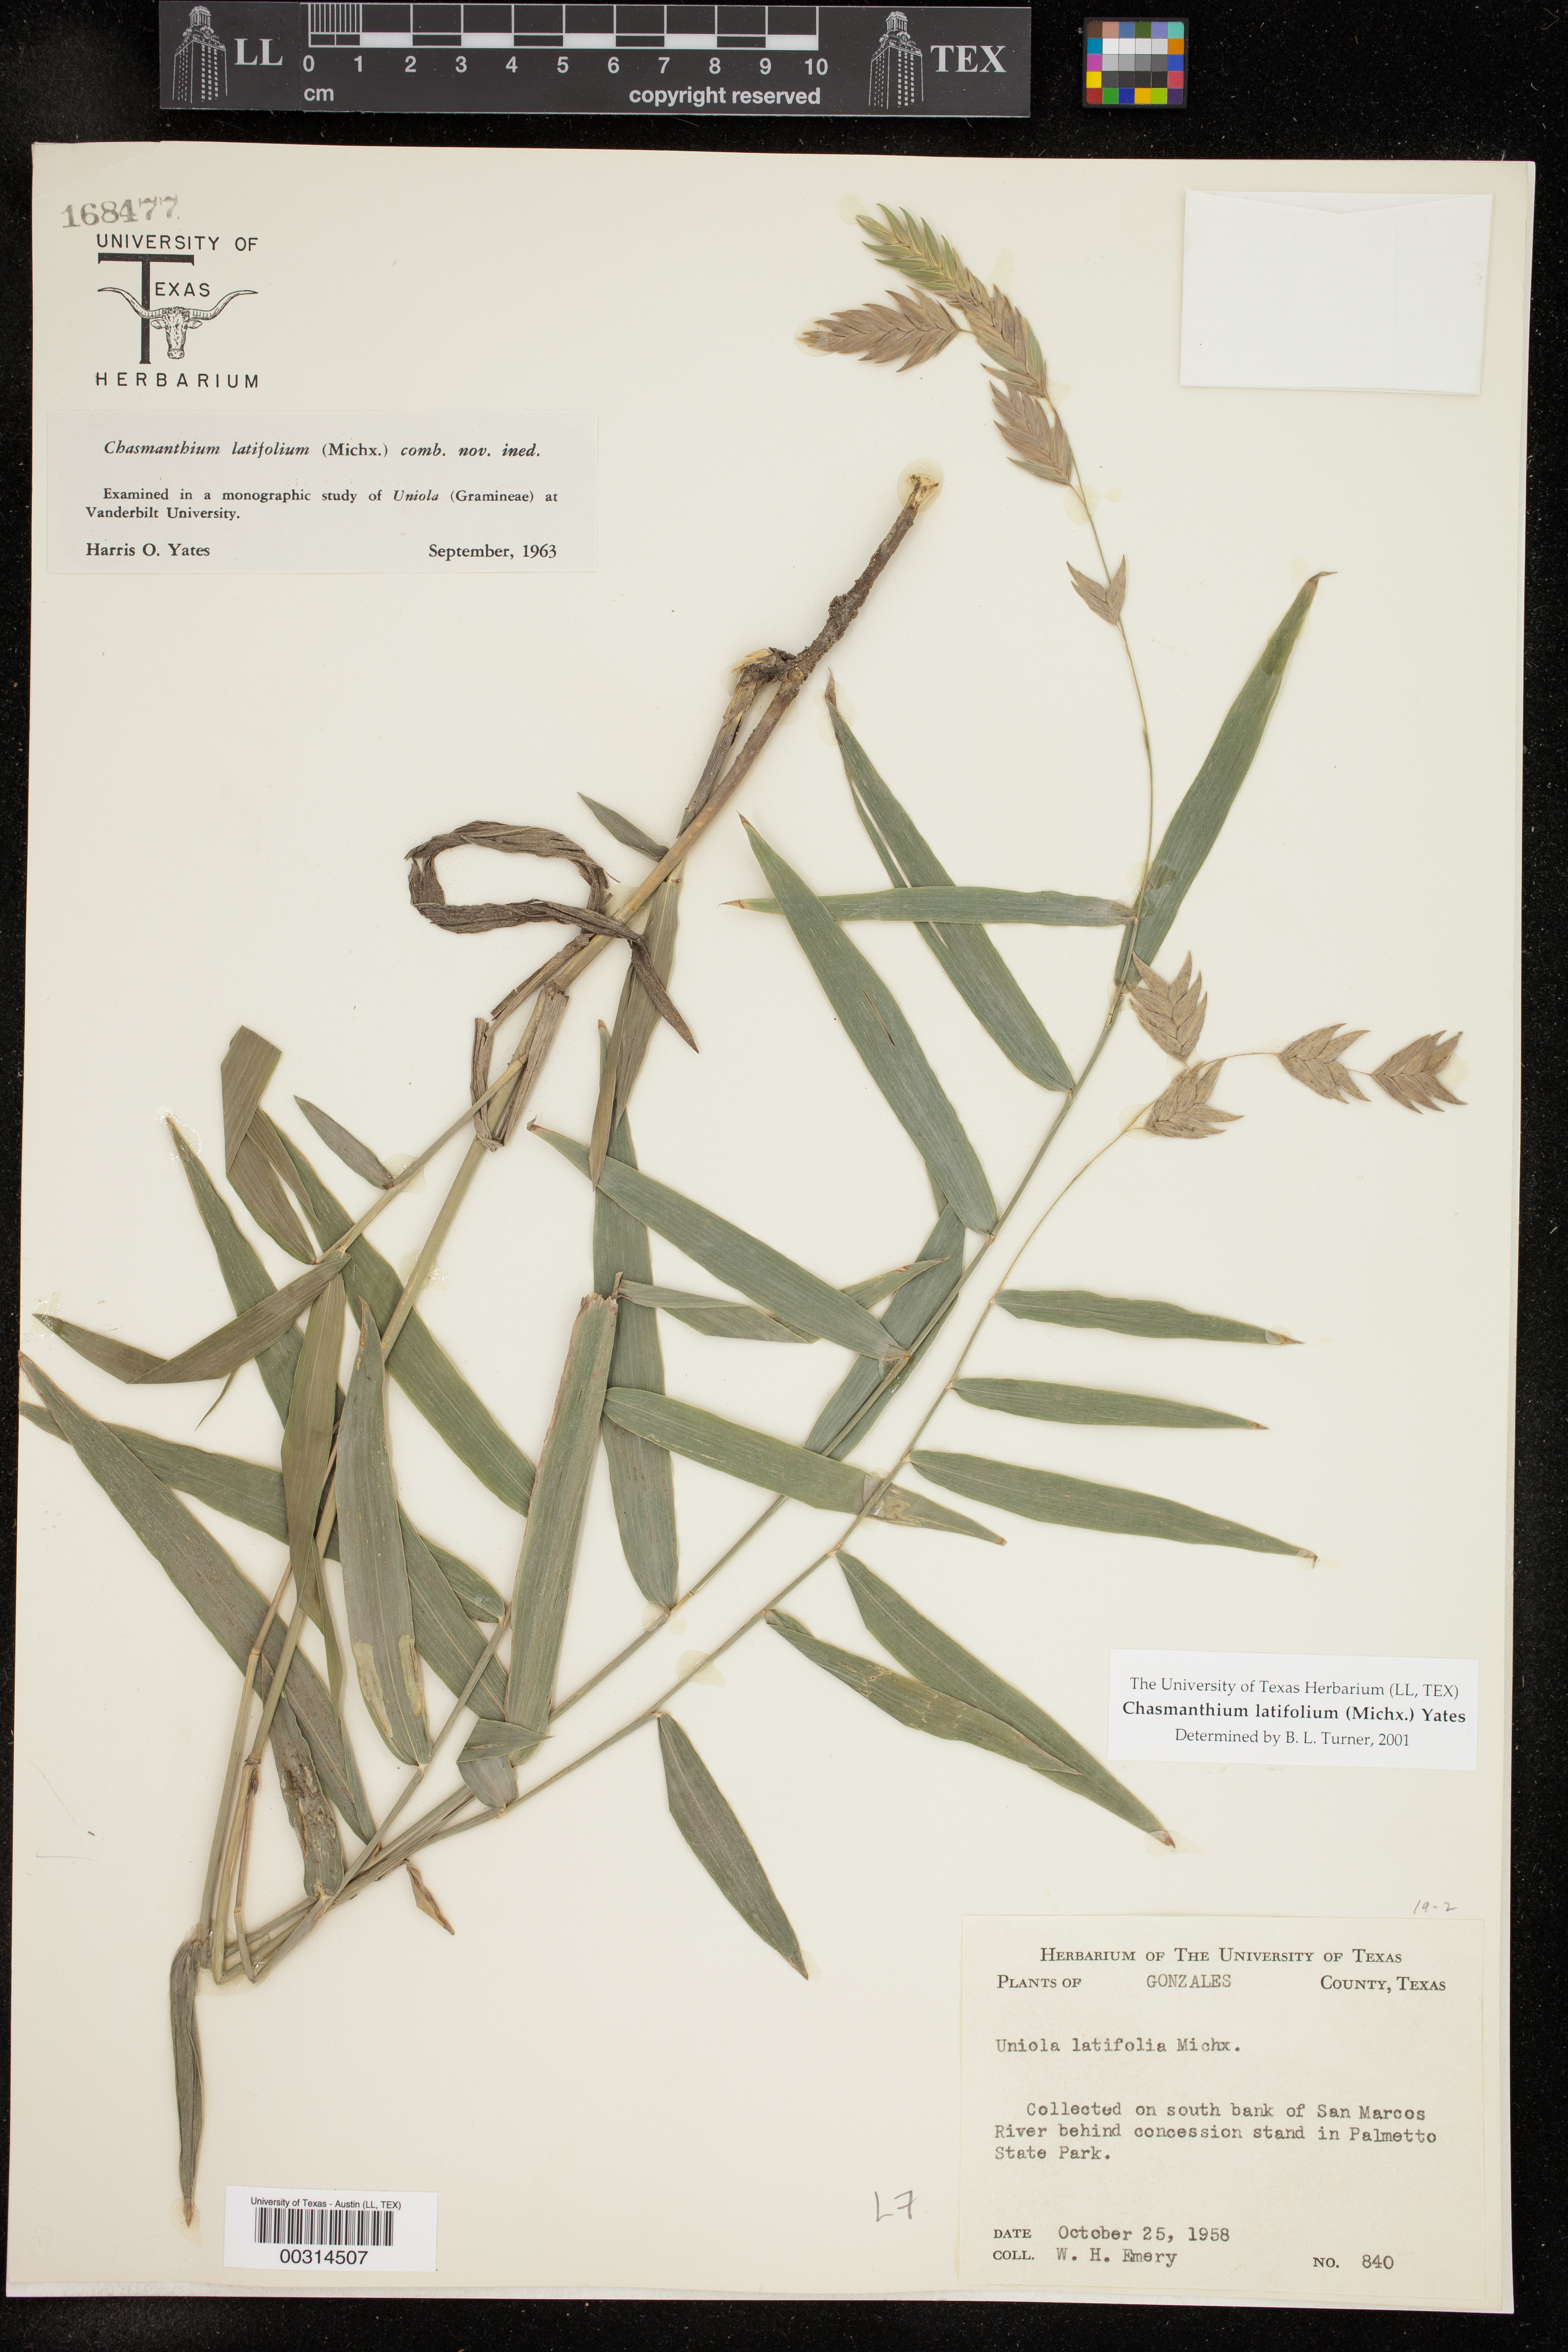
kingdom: Plantae
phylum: Tracheophyta
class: Liliopsida
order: Poales
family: Poaceae
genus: Chasmanthium
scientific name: Chasmanthium latifolium
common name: Broad-leaved chasmanthium
